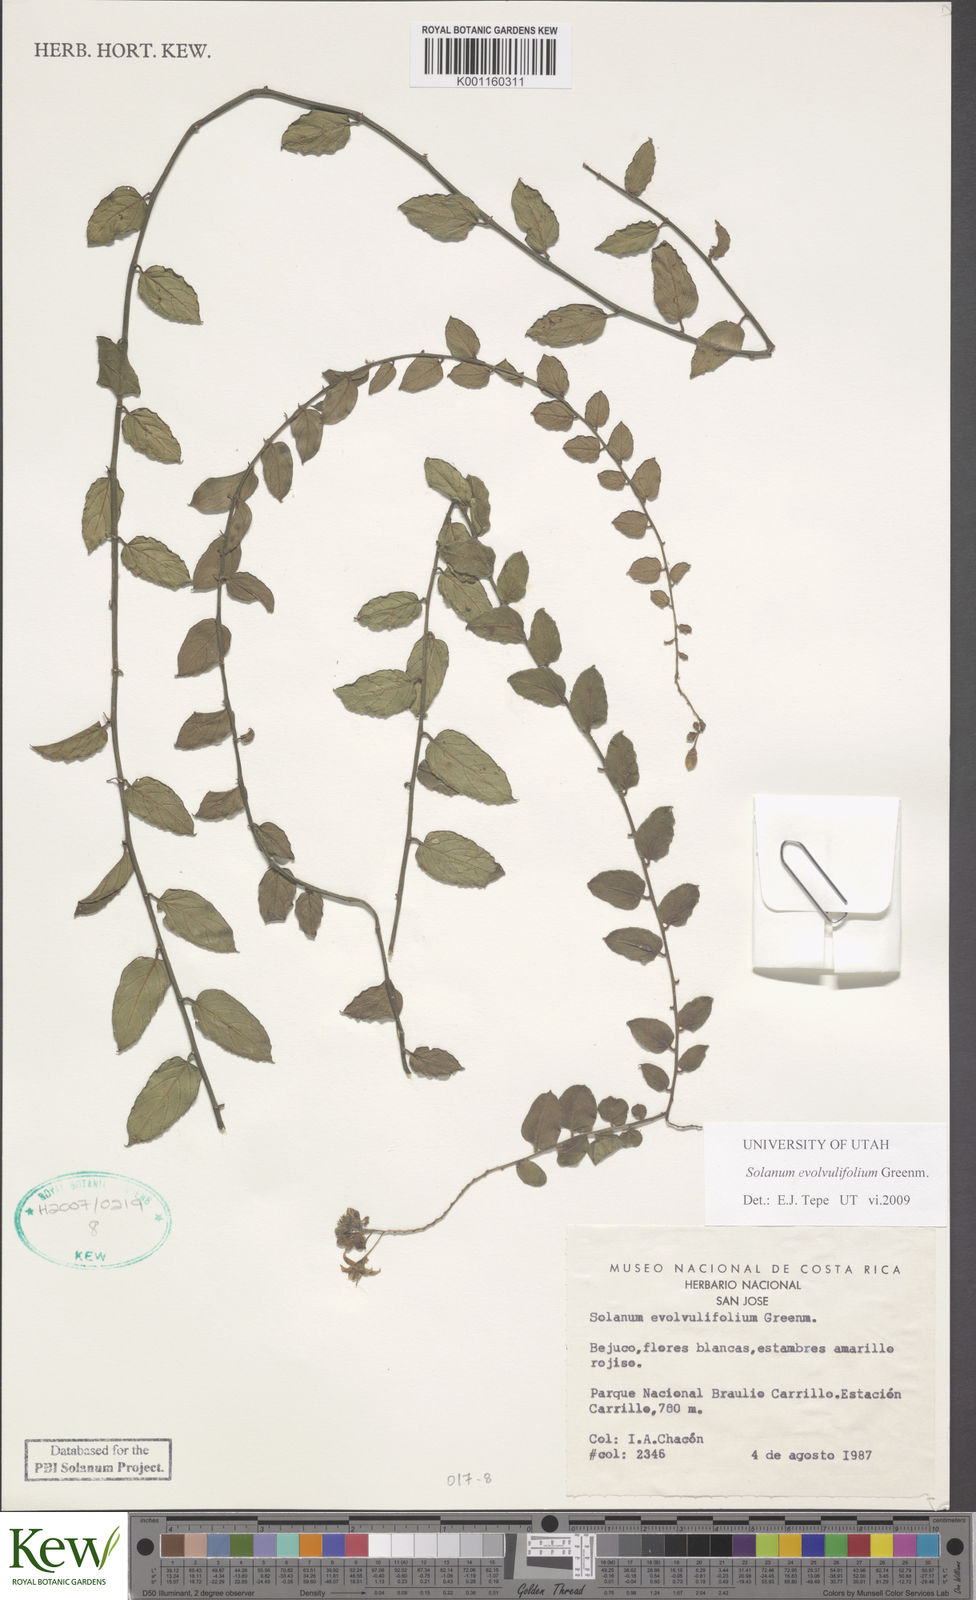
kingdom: Plantae
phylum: Tracheophyta
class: Magnoliopsida
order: Solanales
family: Solanaceae
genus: Solanum
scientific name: Solanum evolvulifolium
